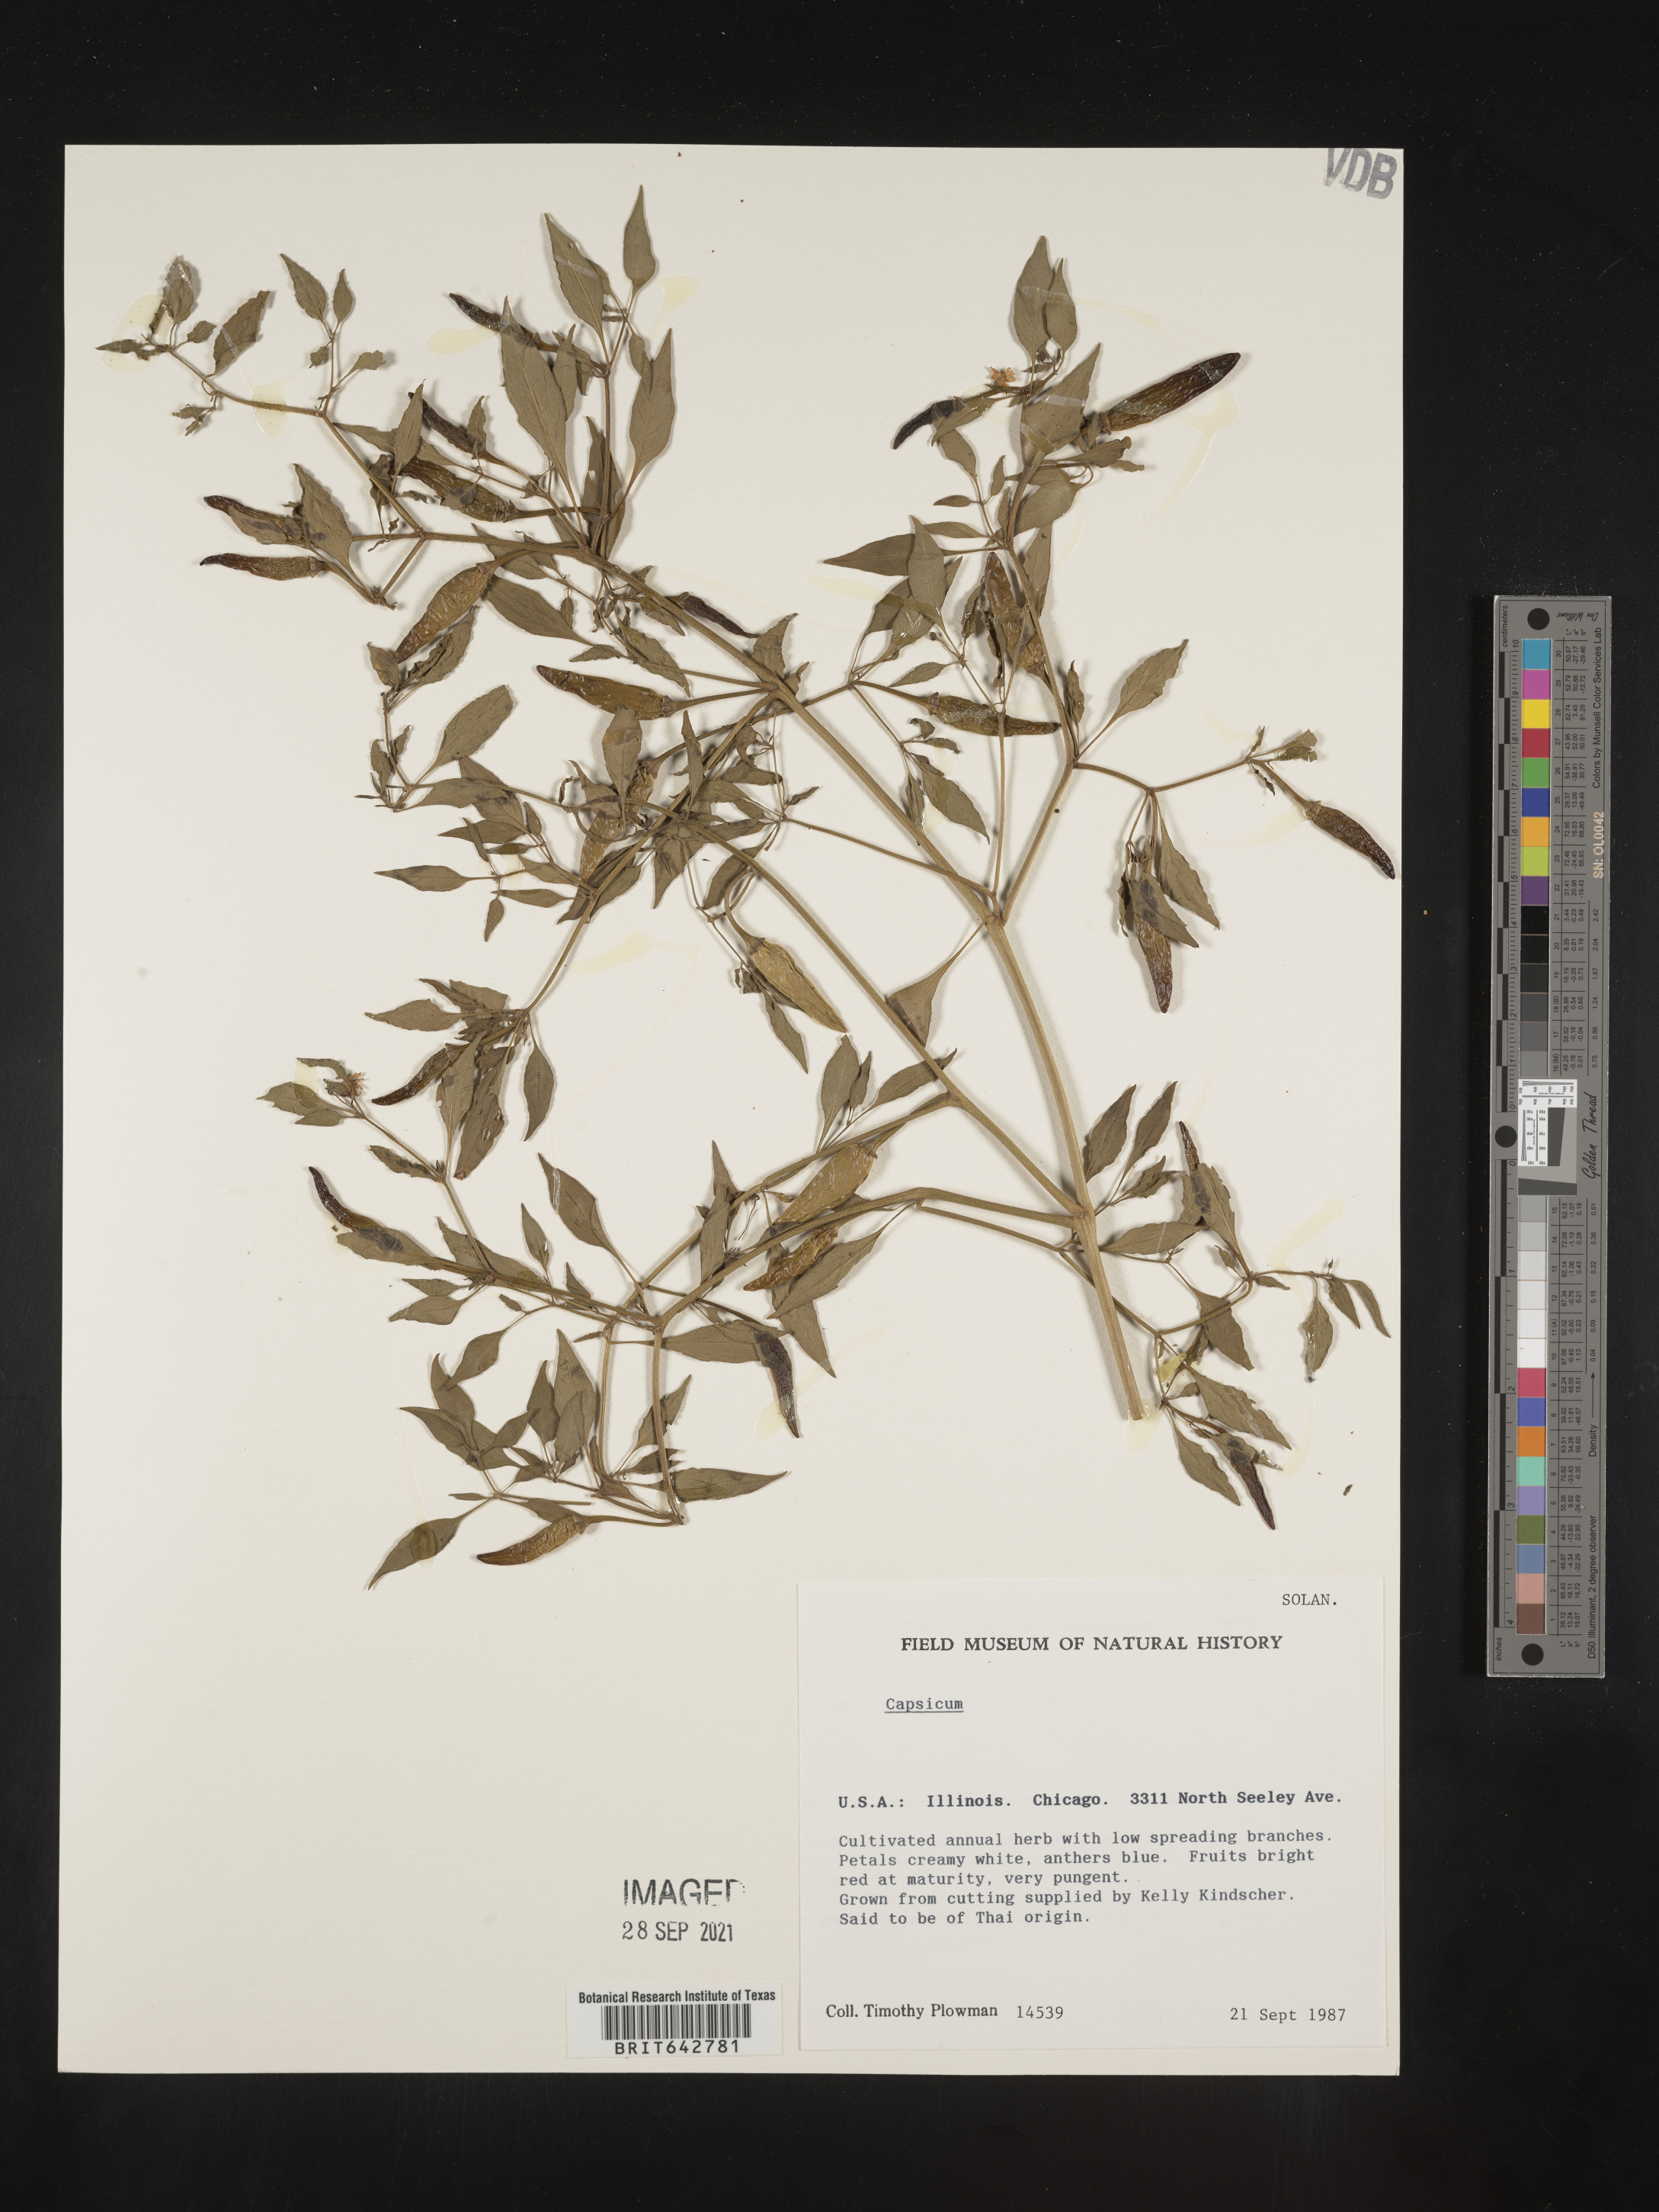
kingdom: Plantae
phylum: Tracheophyta
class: Magnoliopsida
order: Solanales
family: Solanaceae
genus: Capsicum
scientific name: Capsicum
